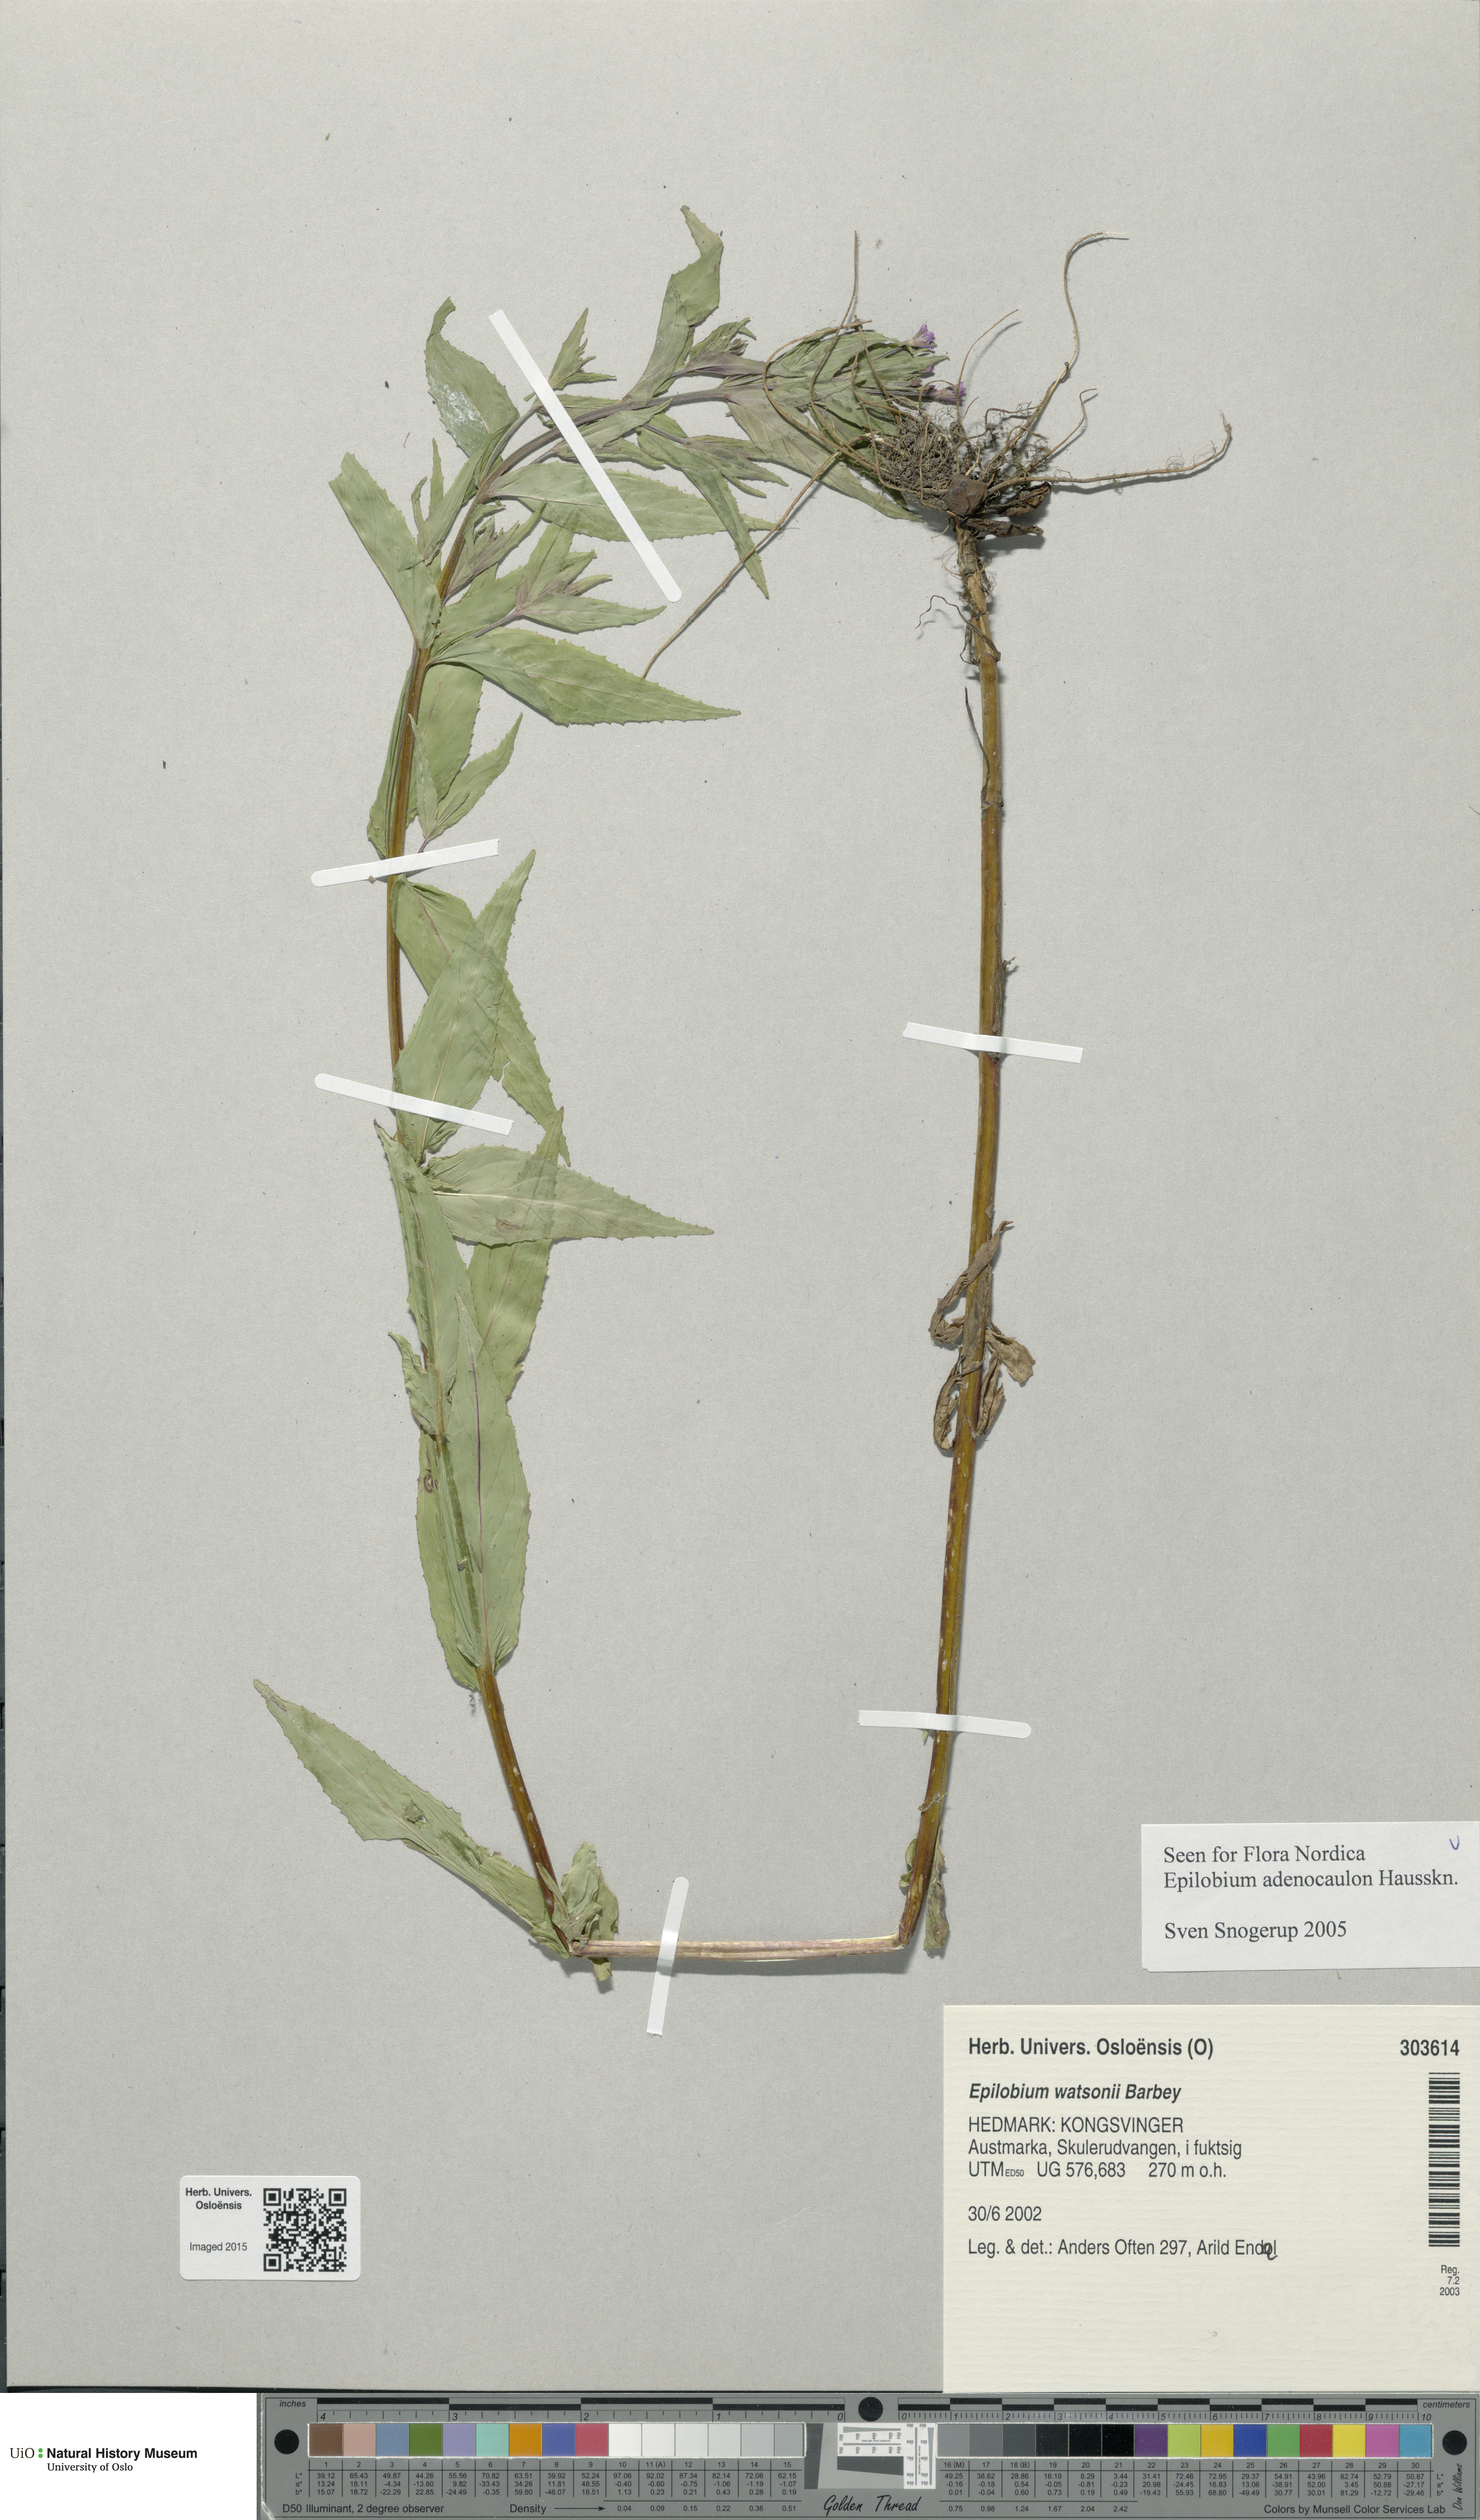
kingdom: Plantae
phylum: Tracheophyta
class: Magnoliopsida
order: Myrtales
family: Onagraceae
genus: Epilobium
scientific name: Epilobium ciliatum
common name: American willowherb
